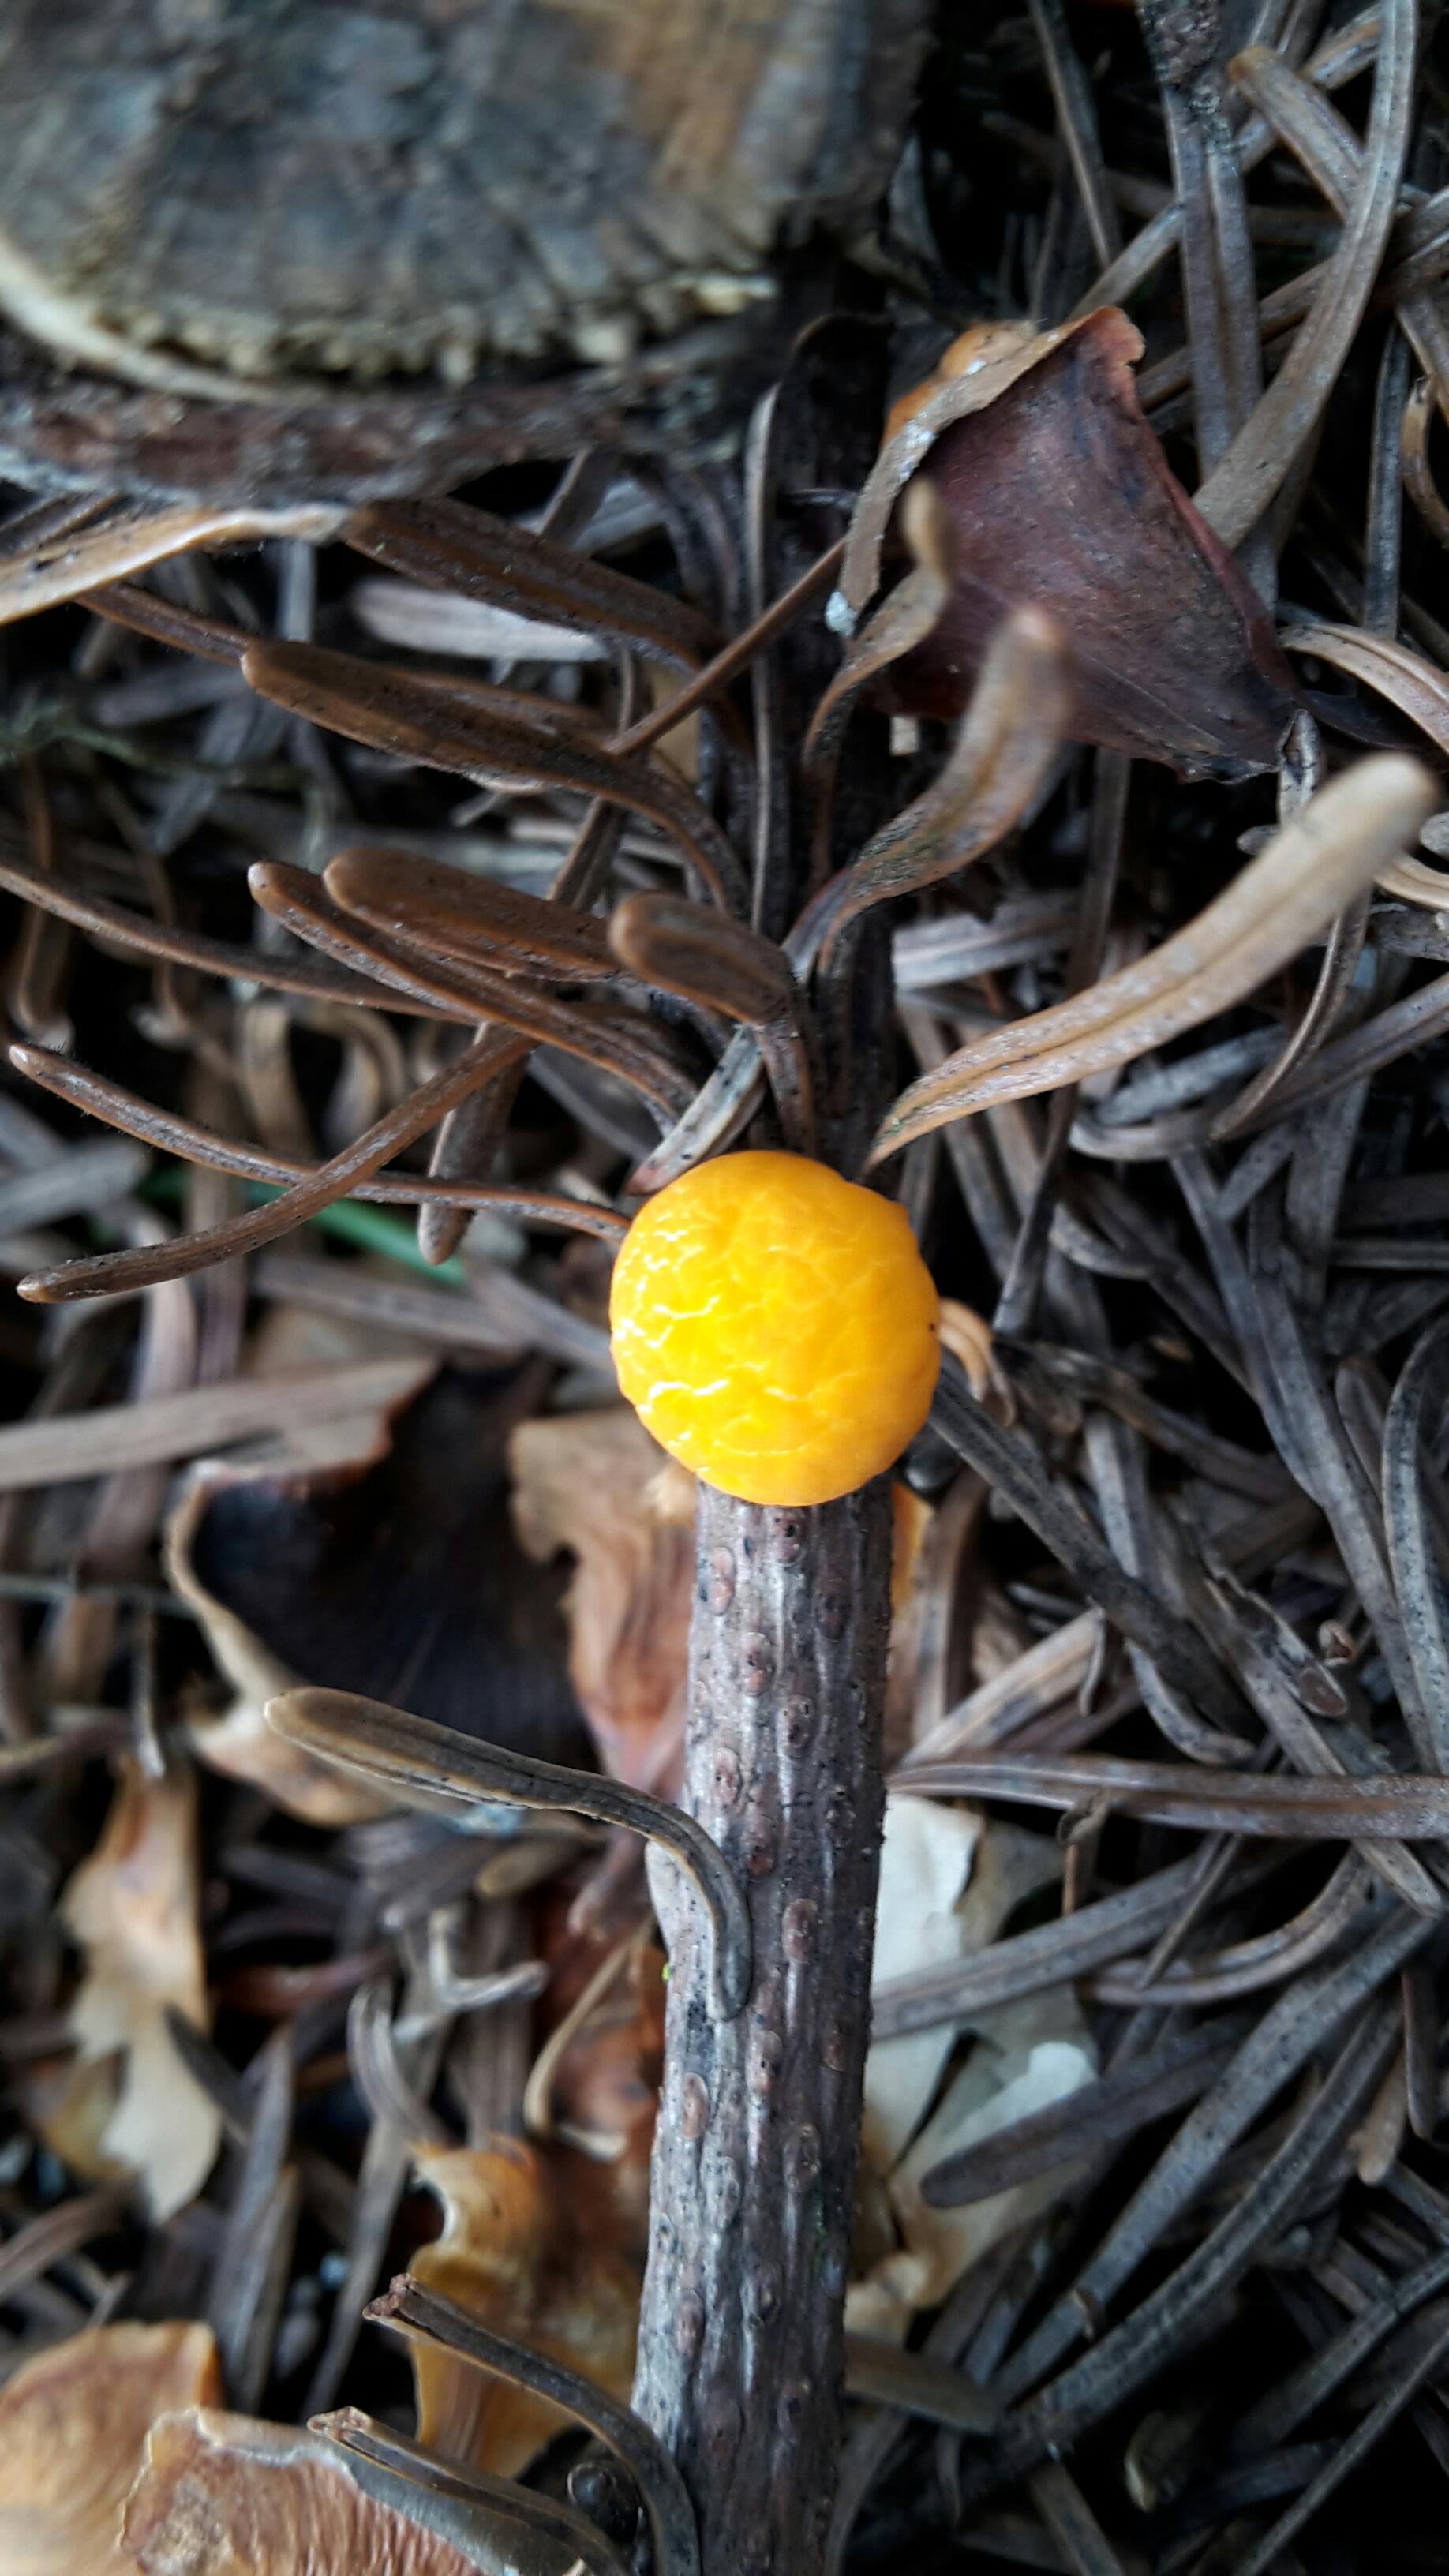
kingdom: Fungi
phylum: Ascomycota
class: Pezizomycetes
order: Pezizales
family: Sarcoscyphaceae
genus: Pithya
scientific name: Pithya vulgaris
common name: stor dukatbæger
